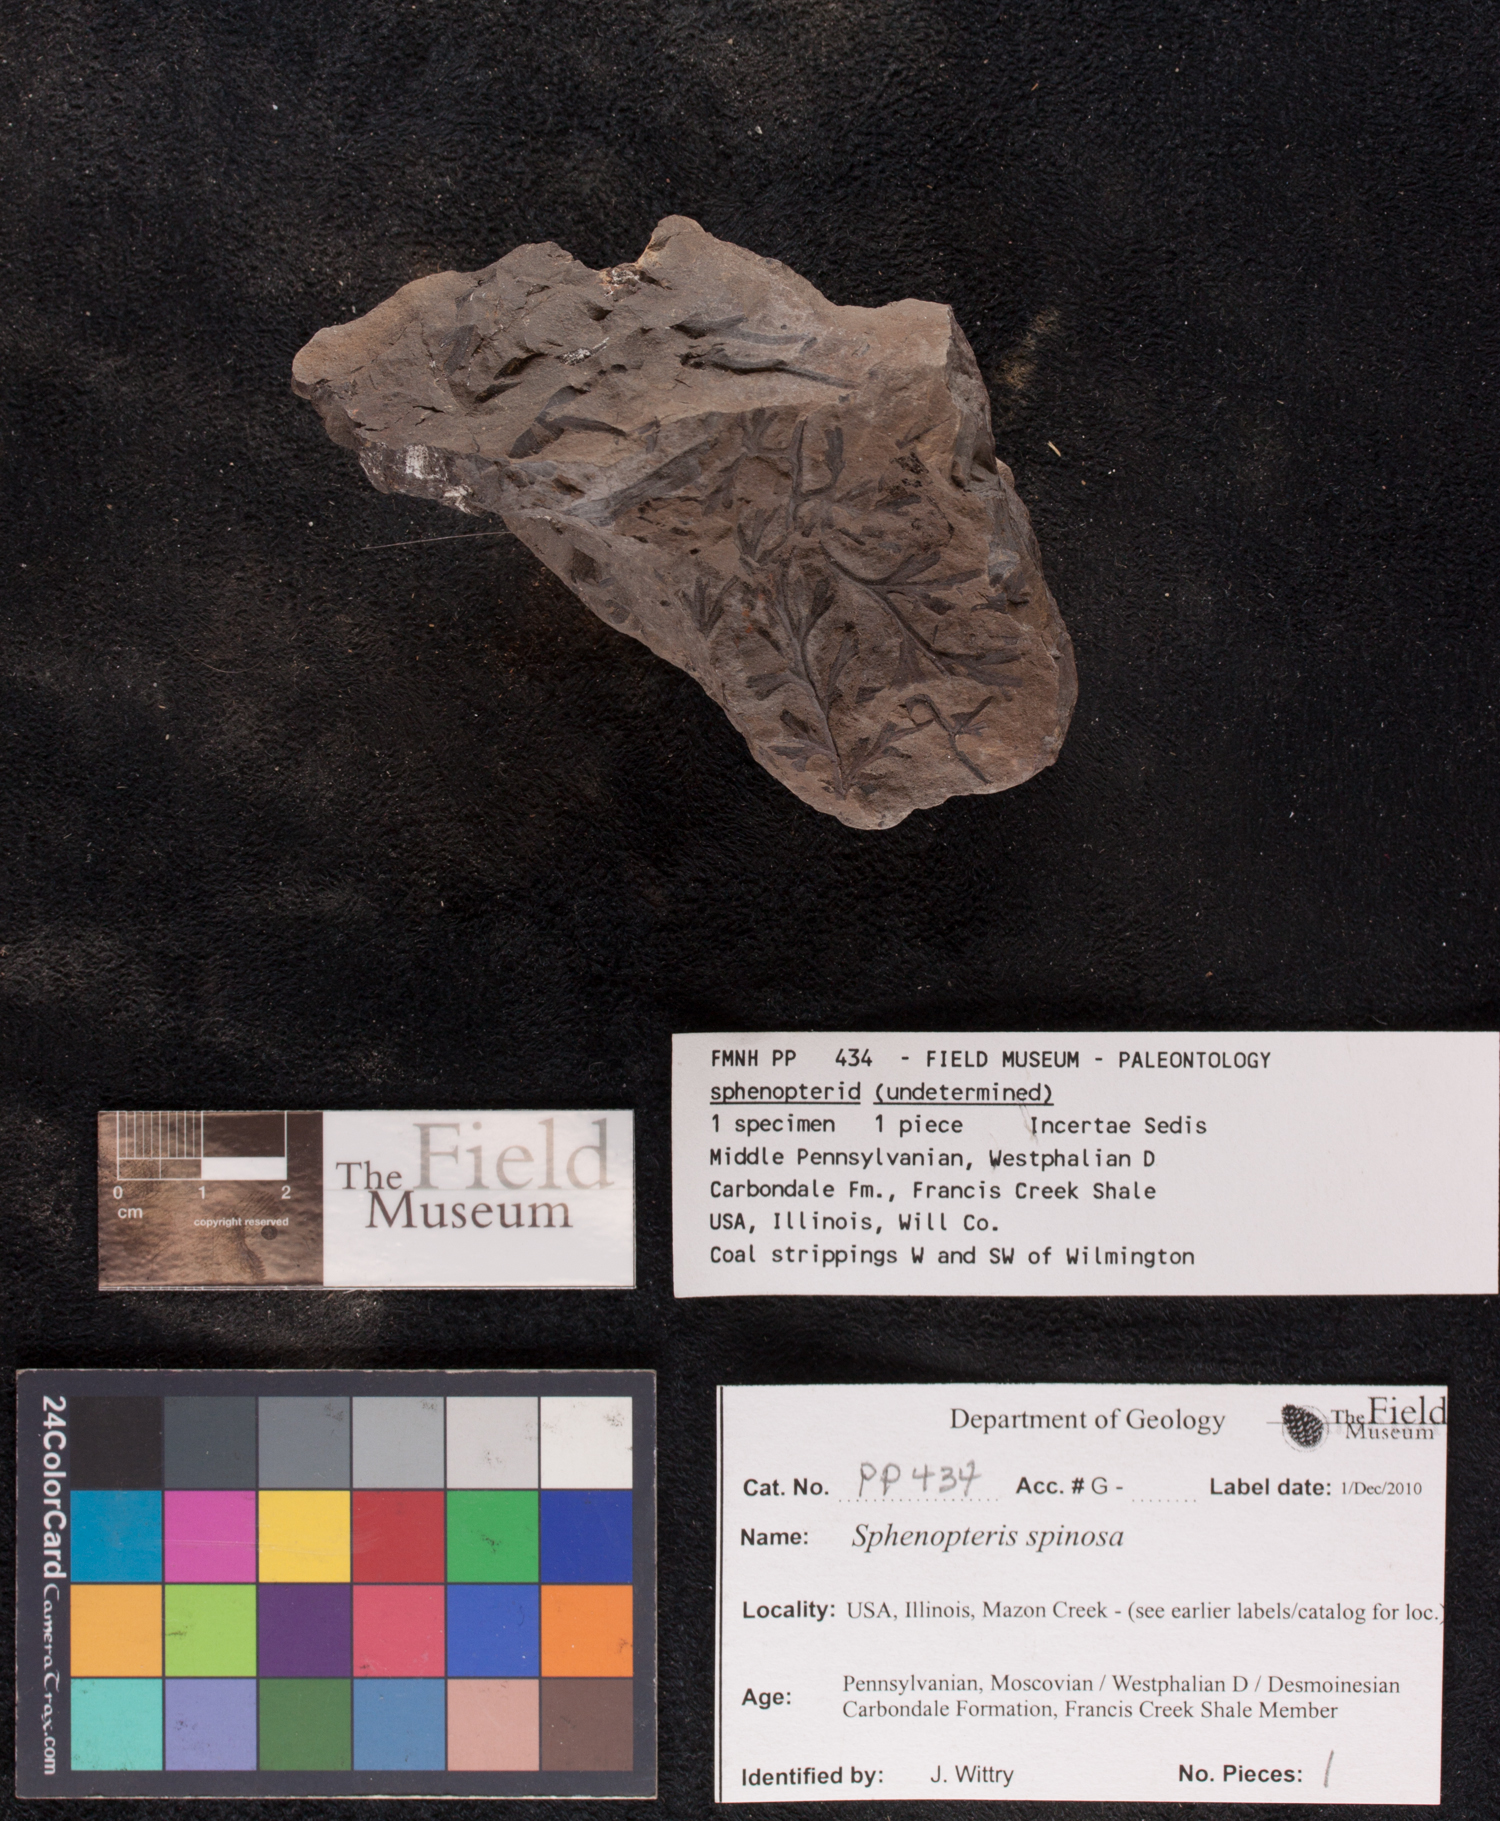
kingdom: Plantae
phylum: Tracheophyta
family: Lyginopteridaceae
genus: Sphenopteris
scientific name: Sphenopteris
